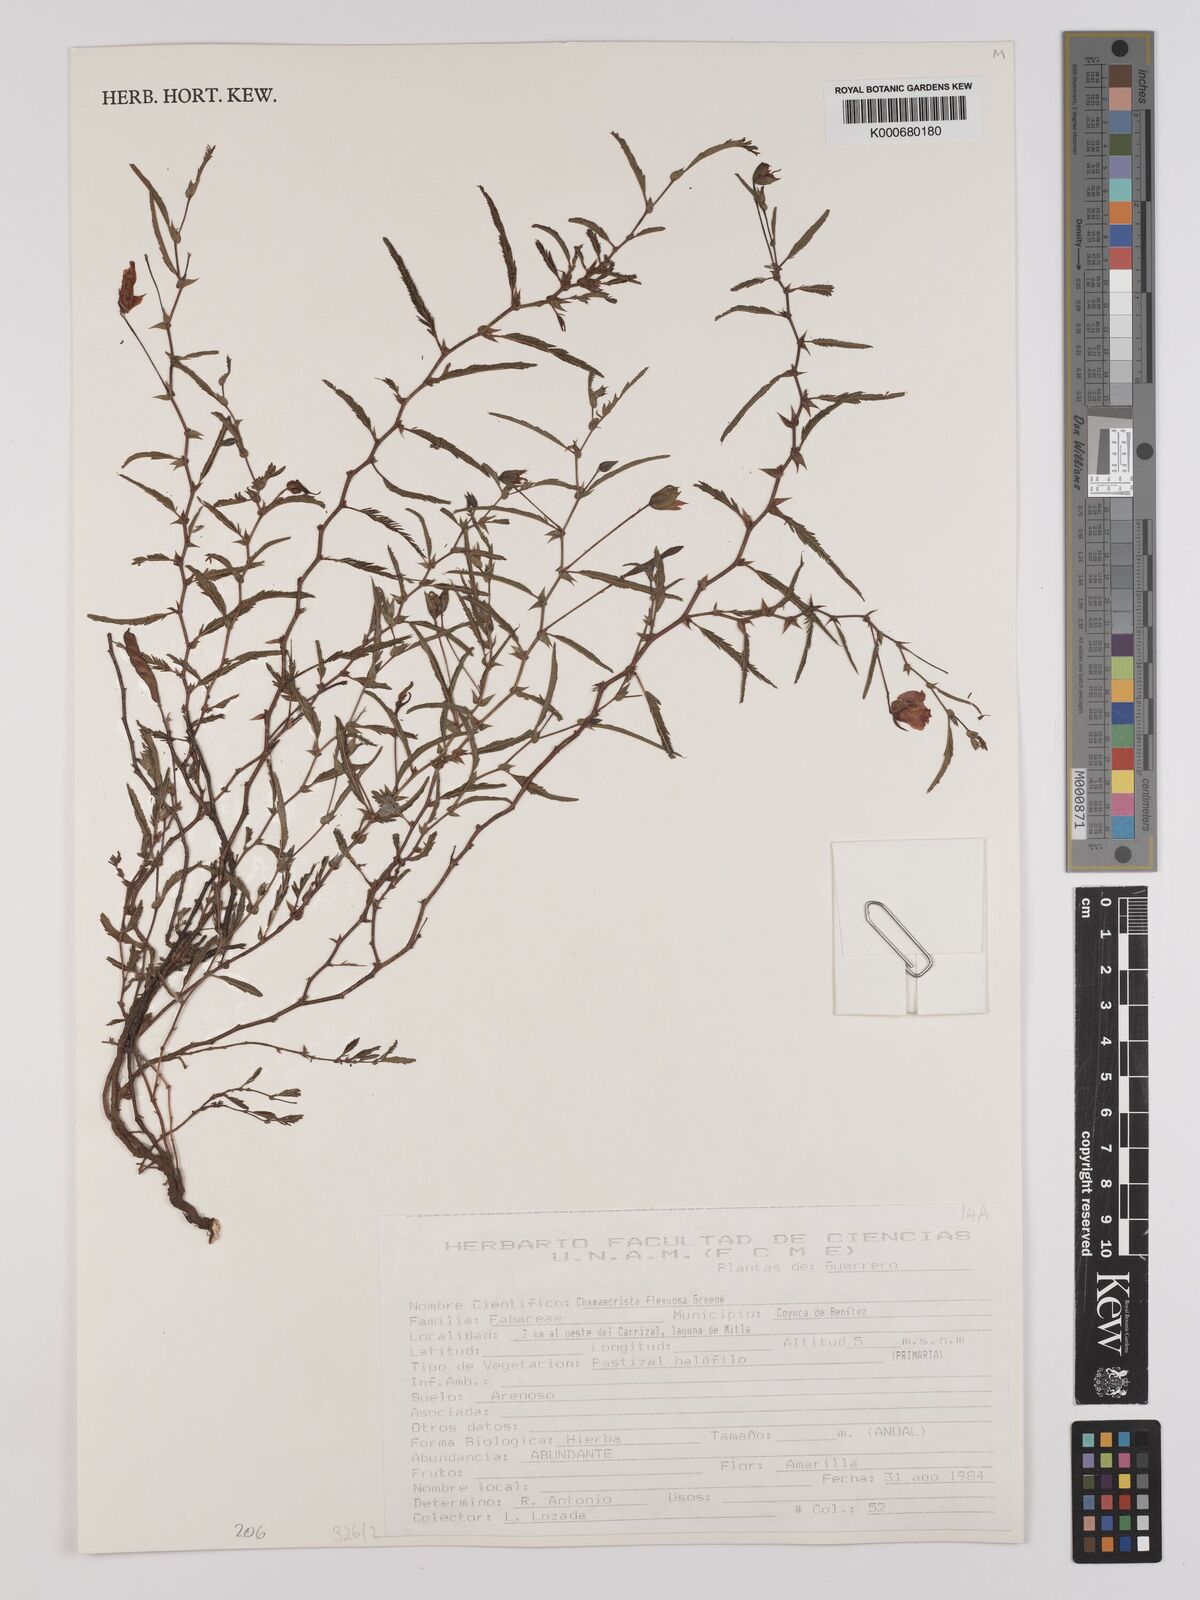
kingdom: Plantae
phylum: Tracheophyta
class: Magnoliopsida
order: Fabales
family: Fabaceae
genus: Chamaecrista
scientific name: Chamaecrista flexuosa
